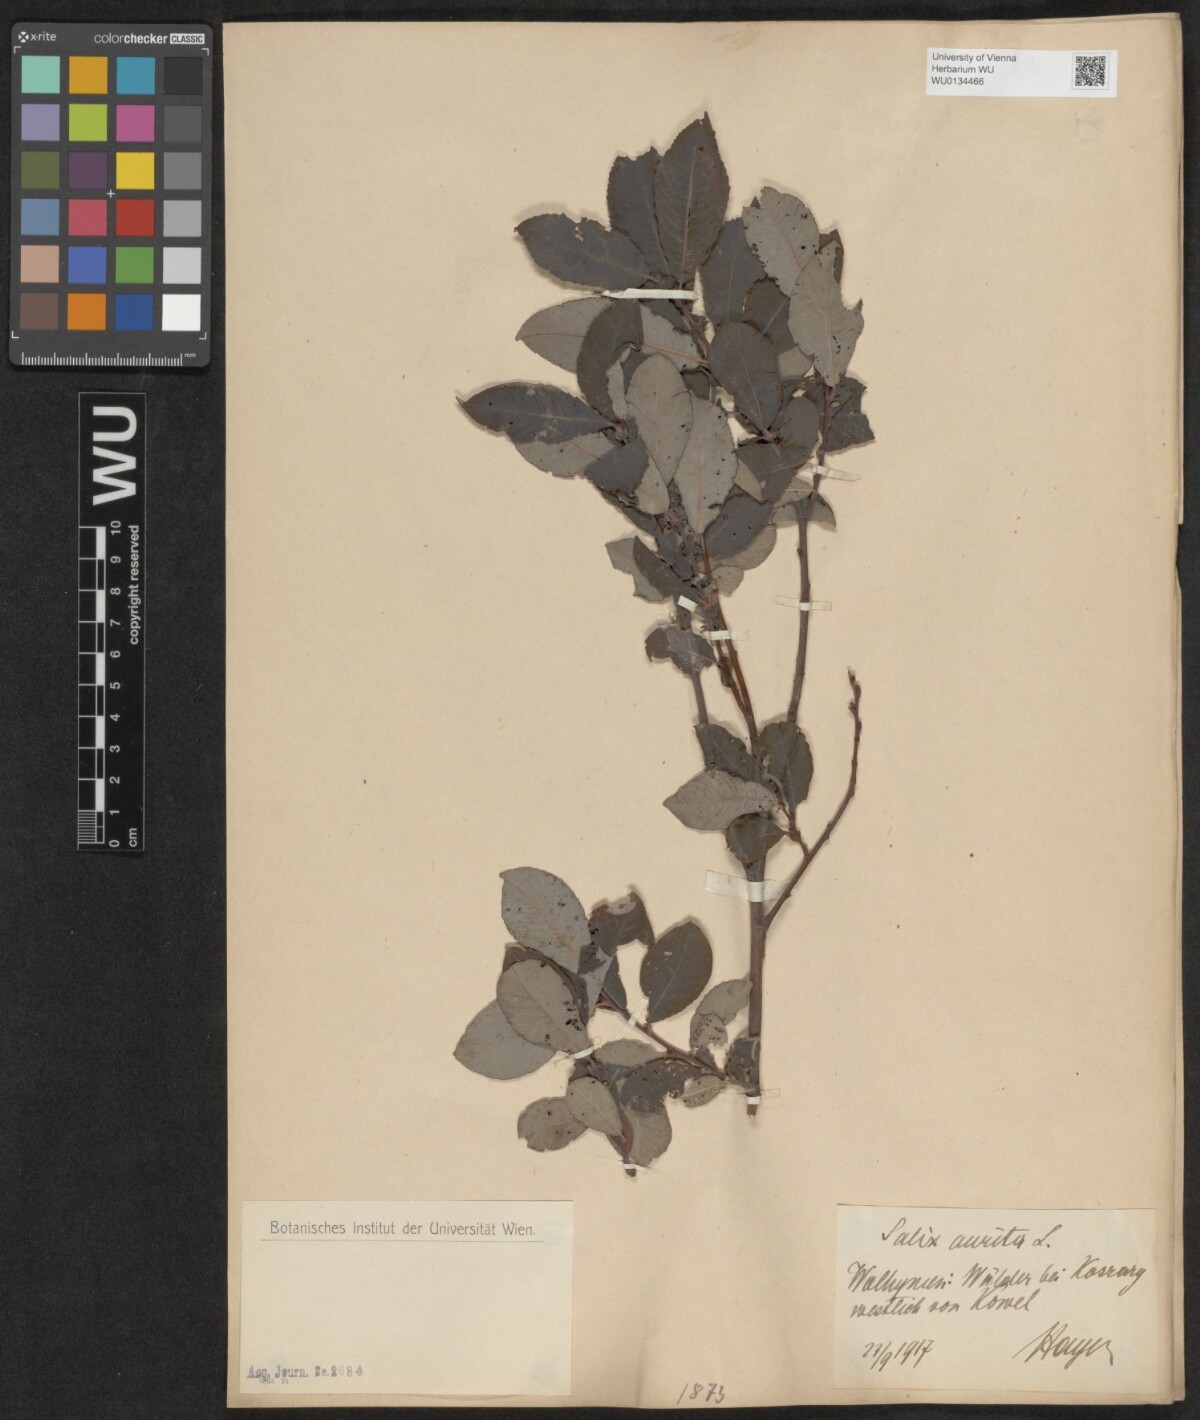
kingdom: Plantae
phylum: Tracheophyta
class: Magnoliopsida
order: Malpighiales
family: Salicaceae
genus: Salix
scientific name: Salix aurita
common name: Eared willow
